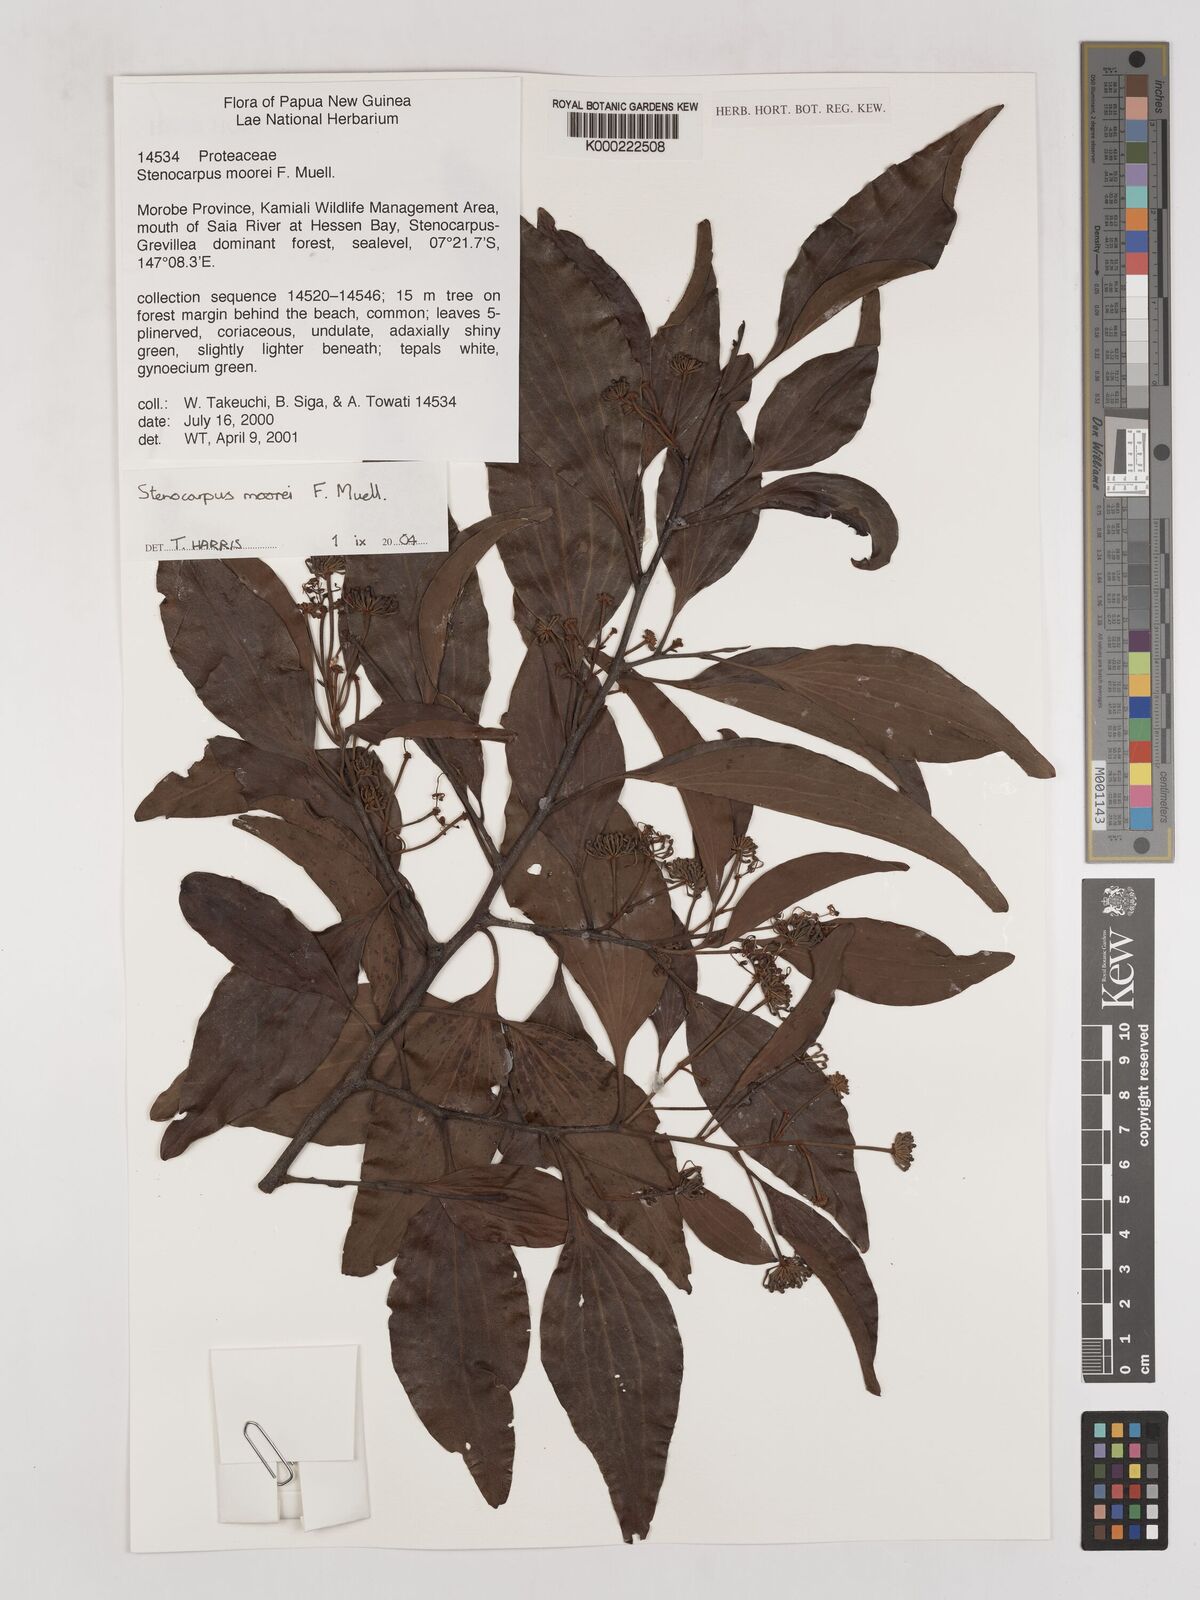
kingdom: Plantae
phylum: Tracheophyta
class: Magnoliopsida
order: Proteales
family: Proteaceae
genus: Stenocarpus
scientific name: Stenocarpus moorei
